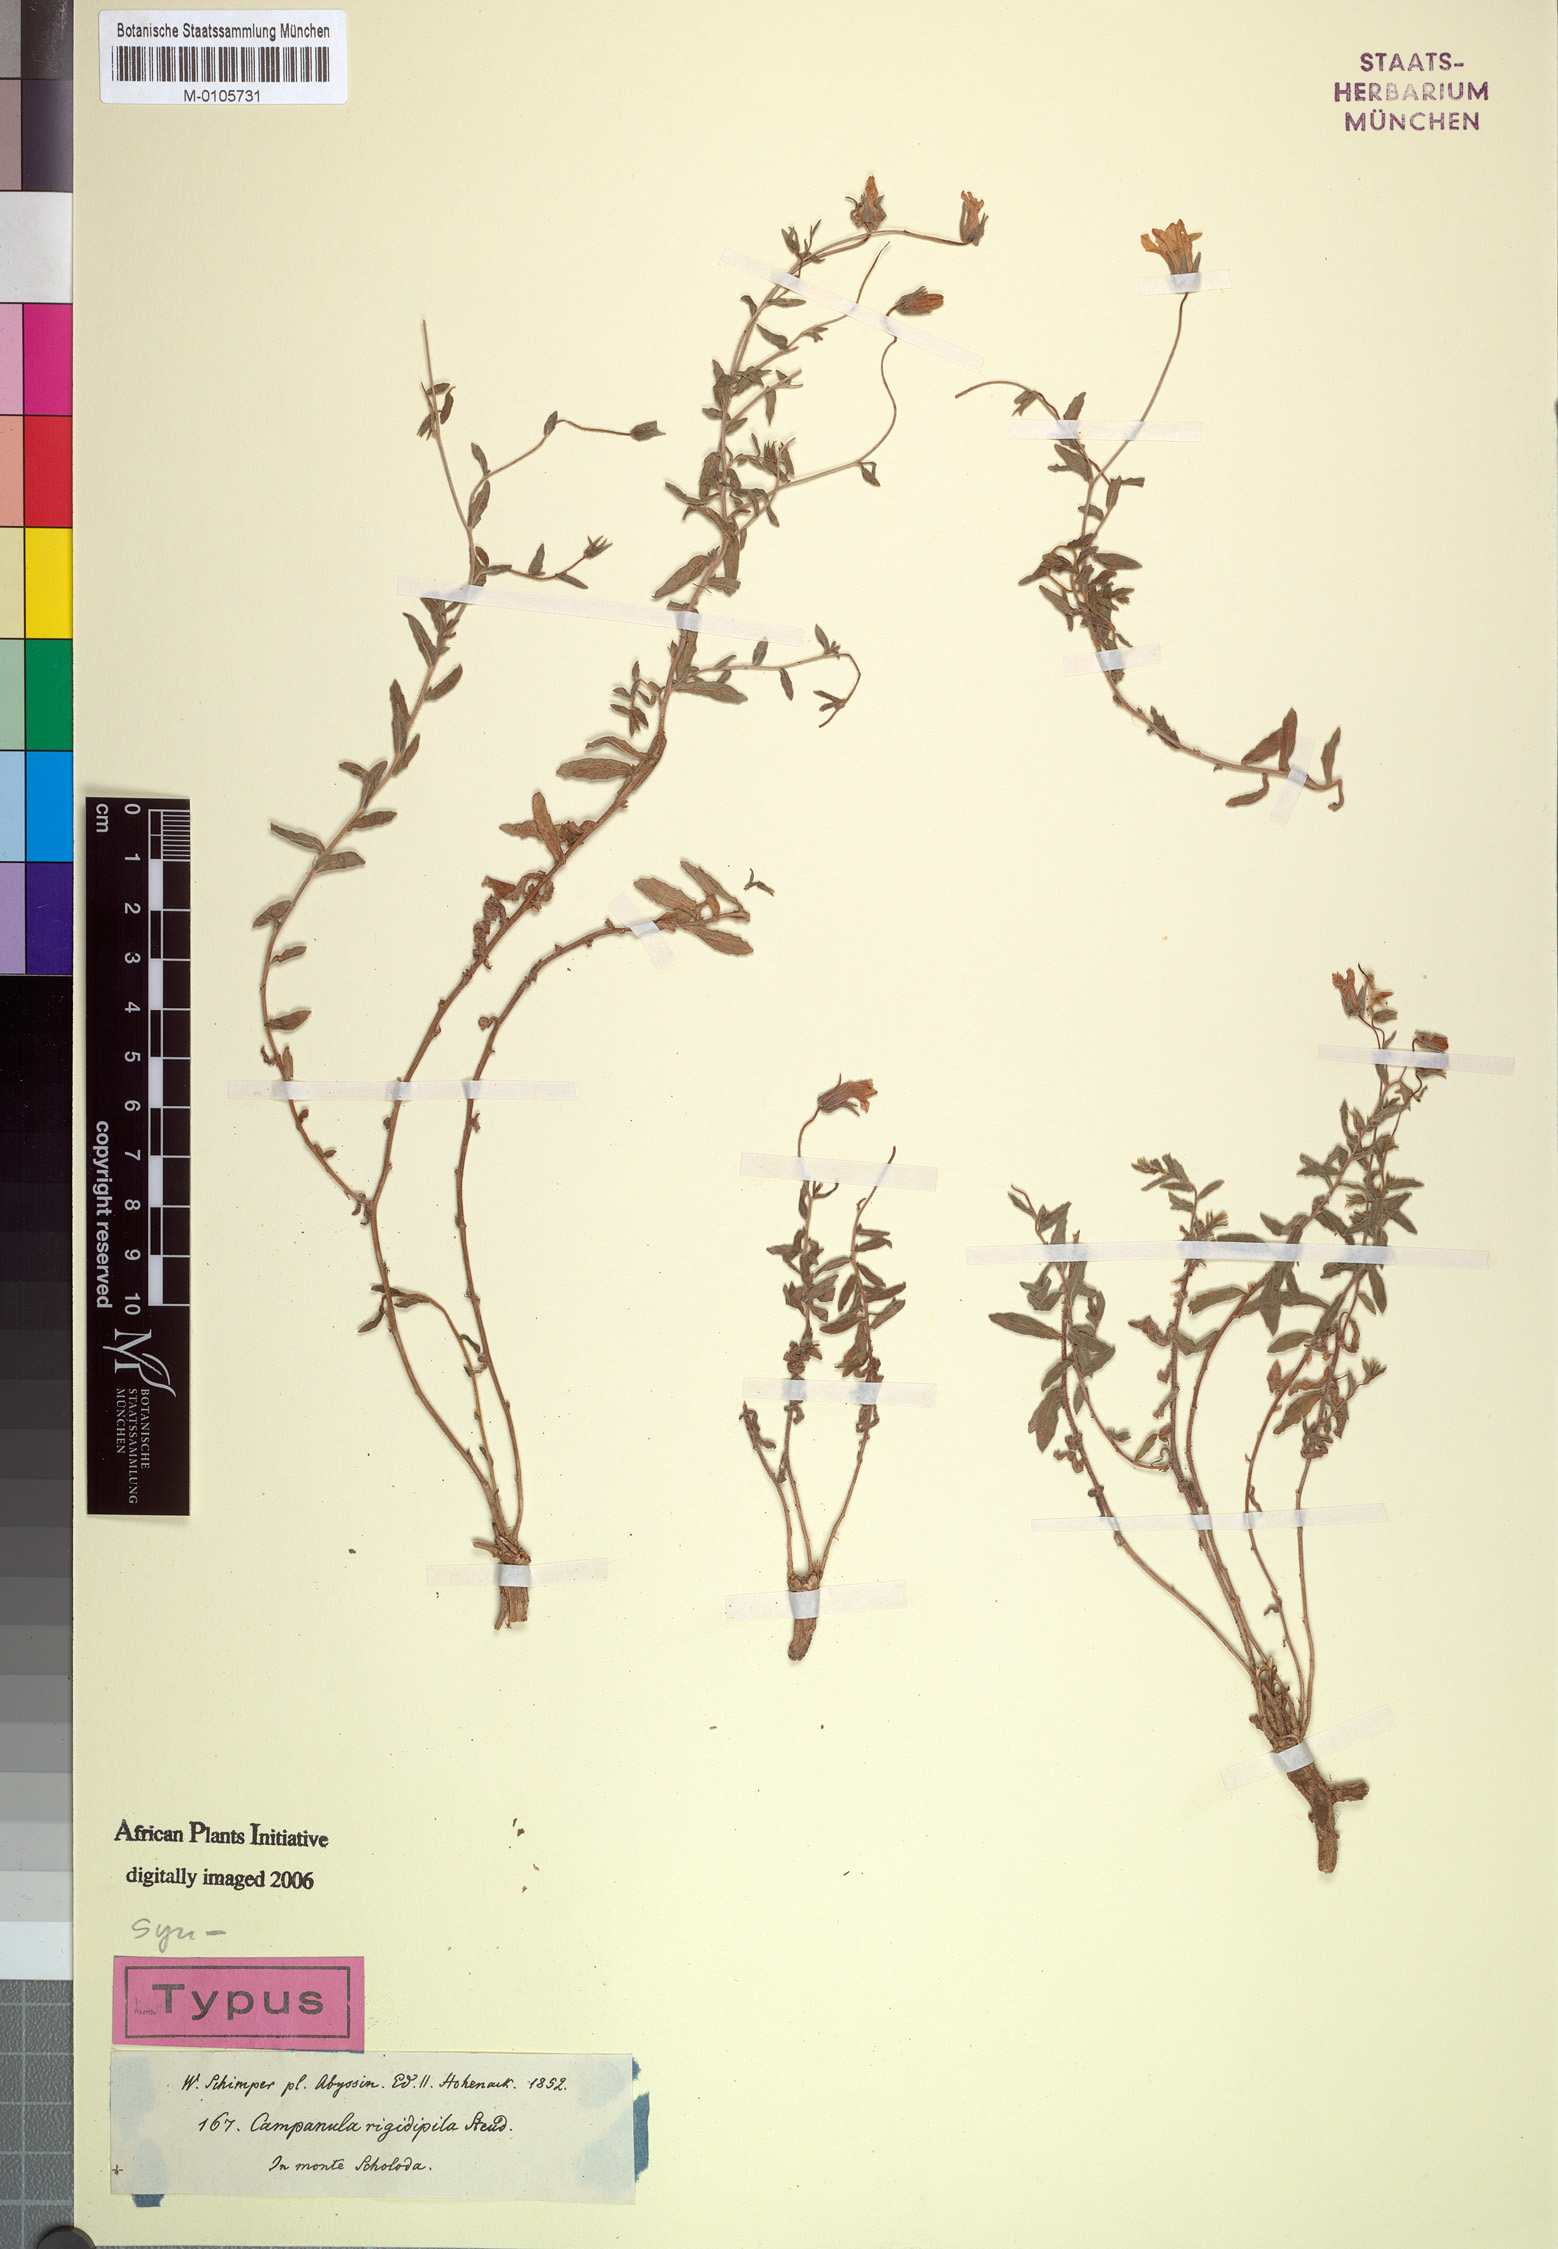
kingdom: Plantae
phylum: Tracheophyta
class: Magnoliopsida
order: Asterales
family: Campanulaceae
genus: Campanula
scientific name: Campanula edulis
